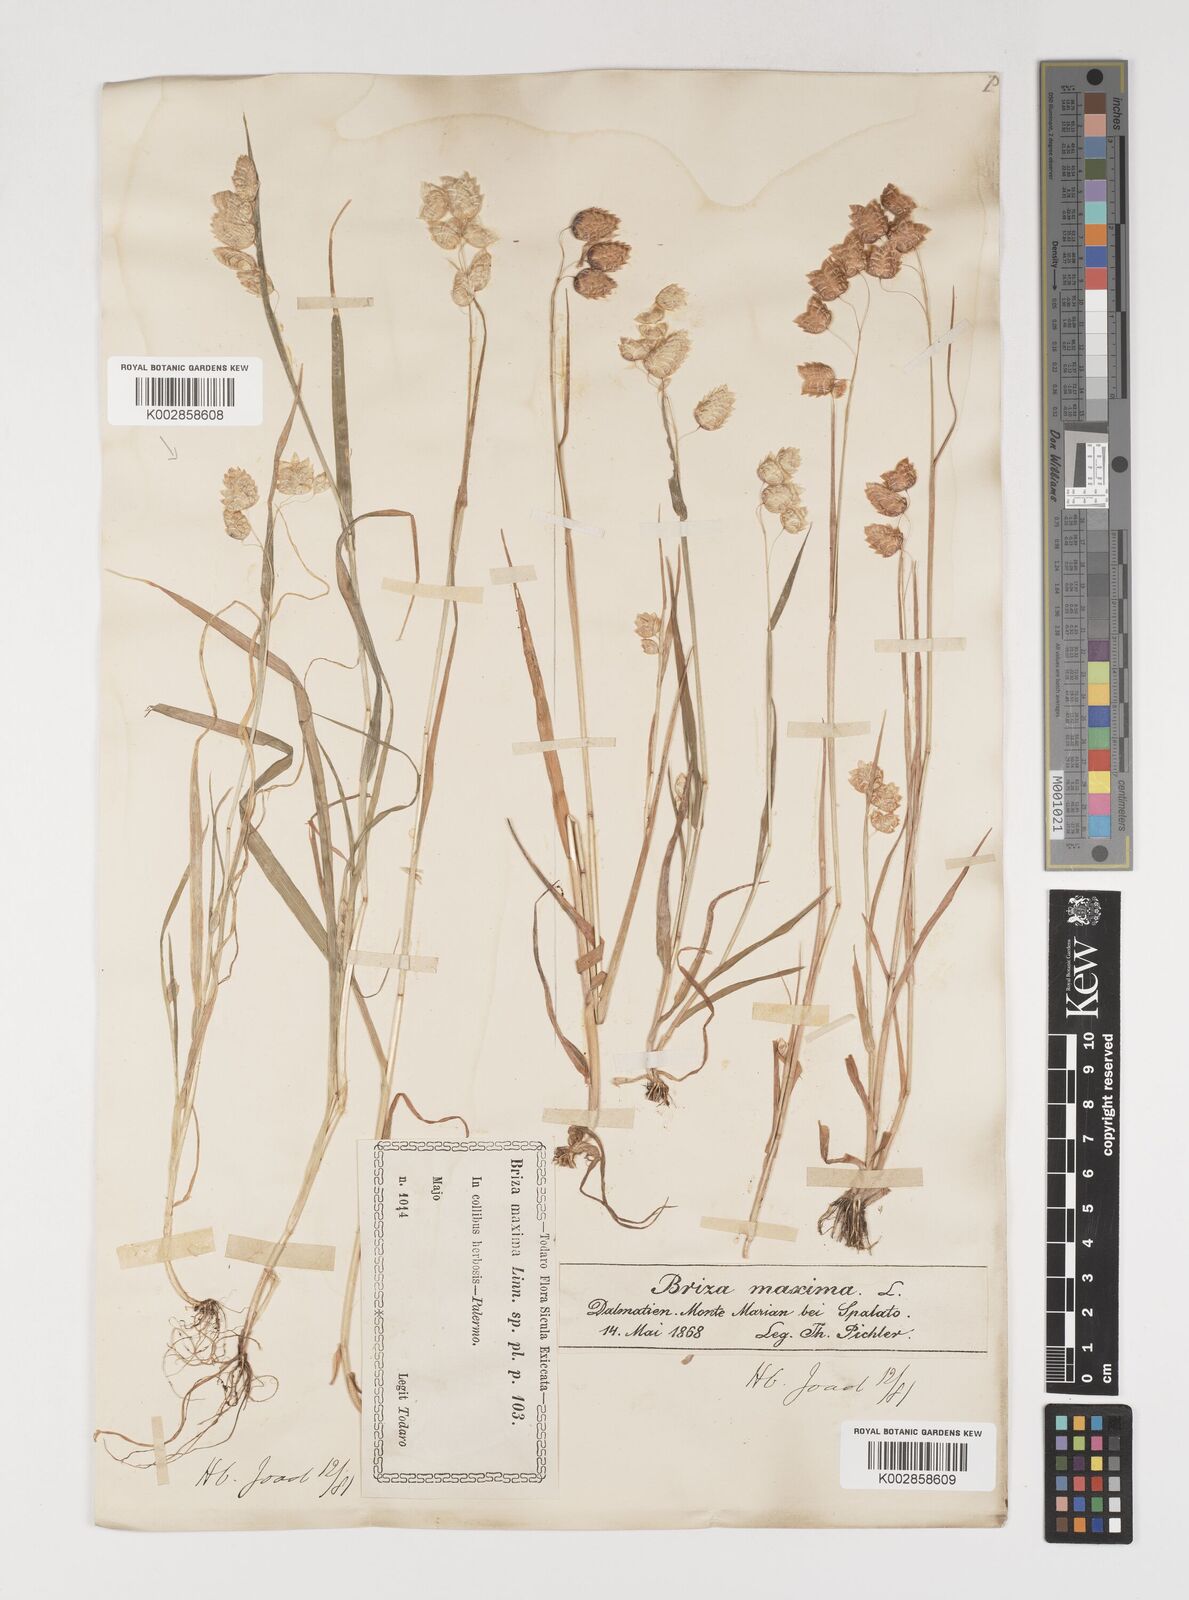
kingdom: Plantae
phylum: Tracheophyta
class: Liliopsida
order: Poales
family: Poaceae
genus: Briza
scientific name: Briza maxima
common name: Big quakinggrass
